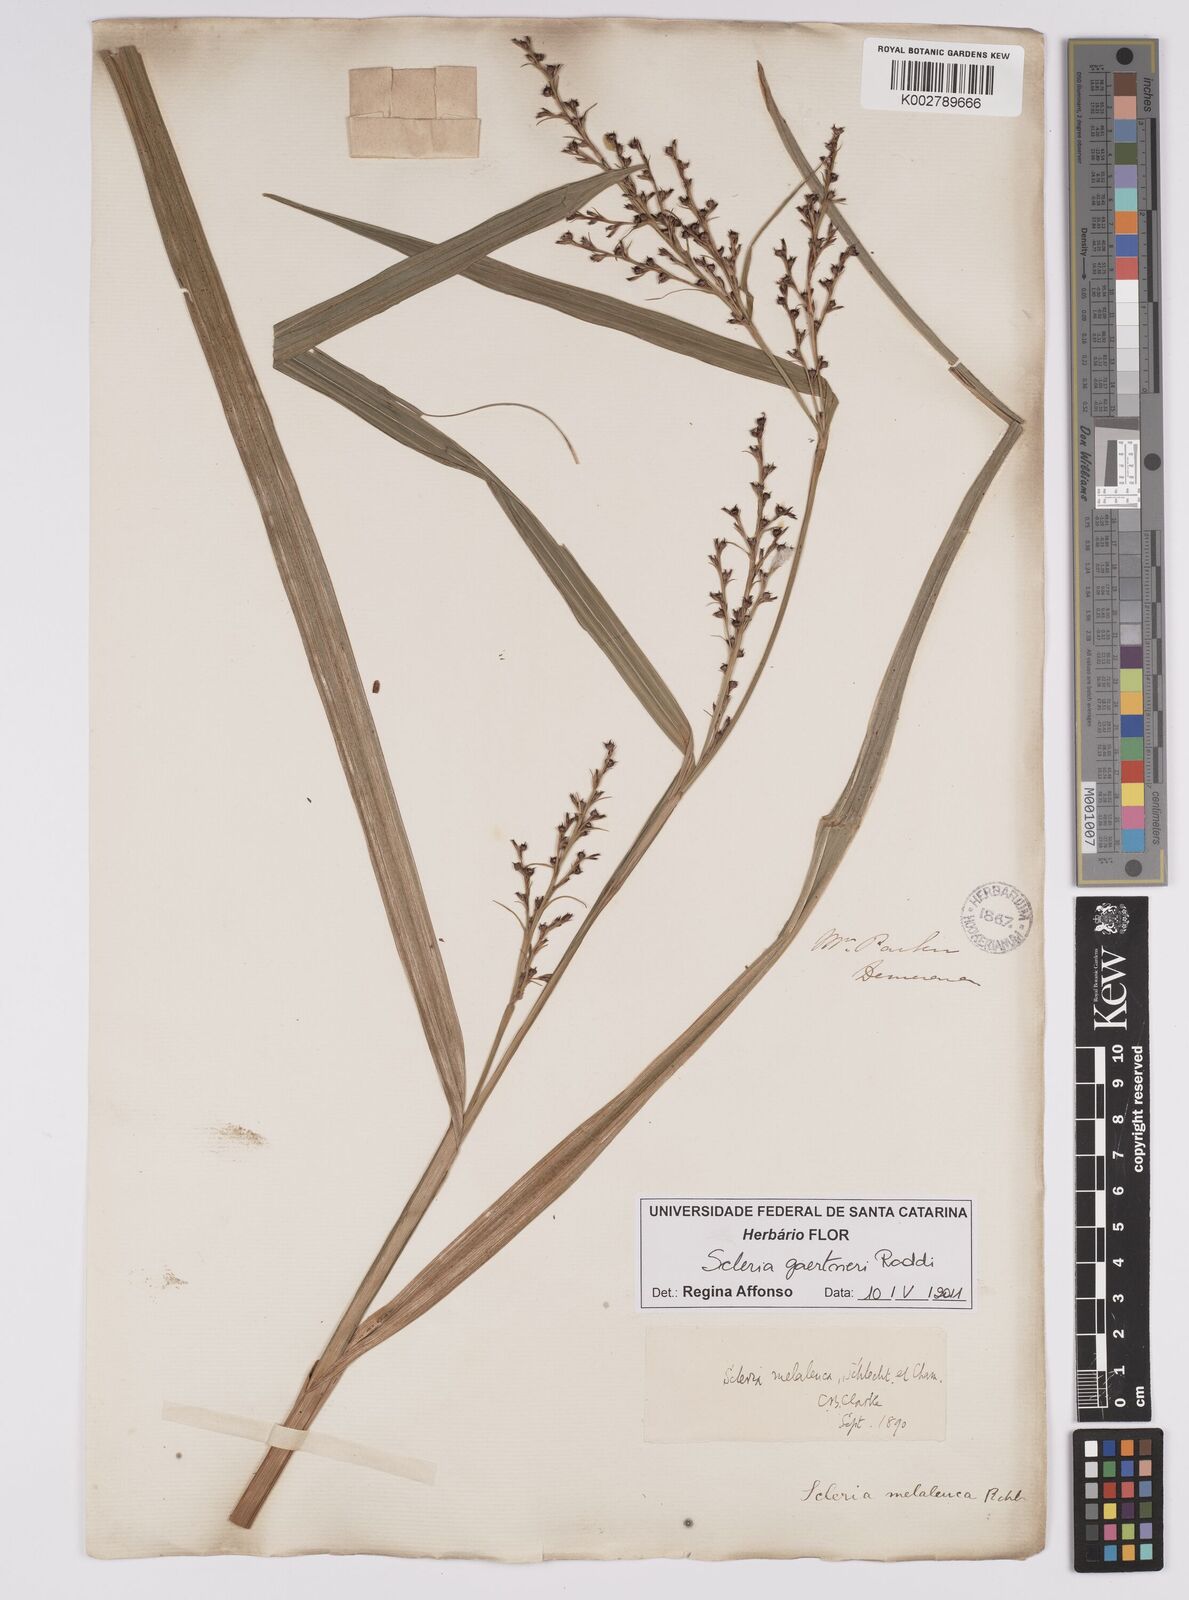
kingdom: Plantae
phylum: Tracheophyta
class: Liliopsida
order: Poales
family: Cyperaceae
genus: Scleria
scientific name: Scleria gaertneri
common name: Cortadera blanca
